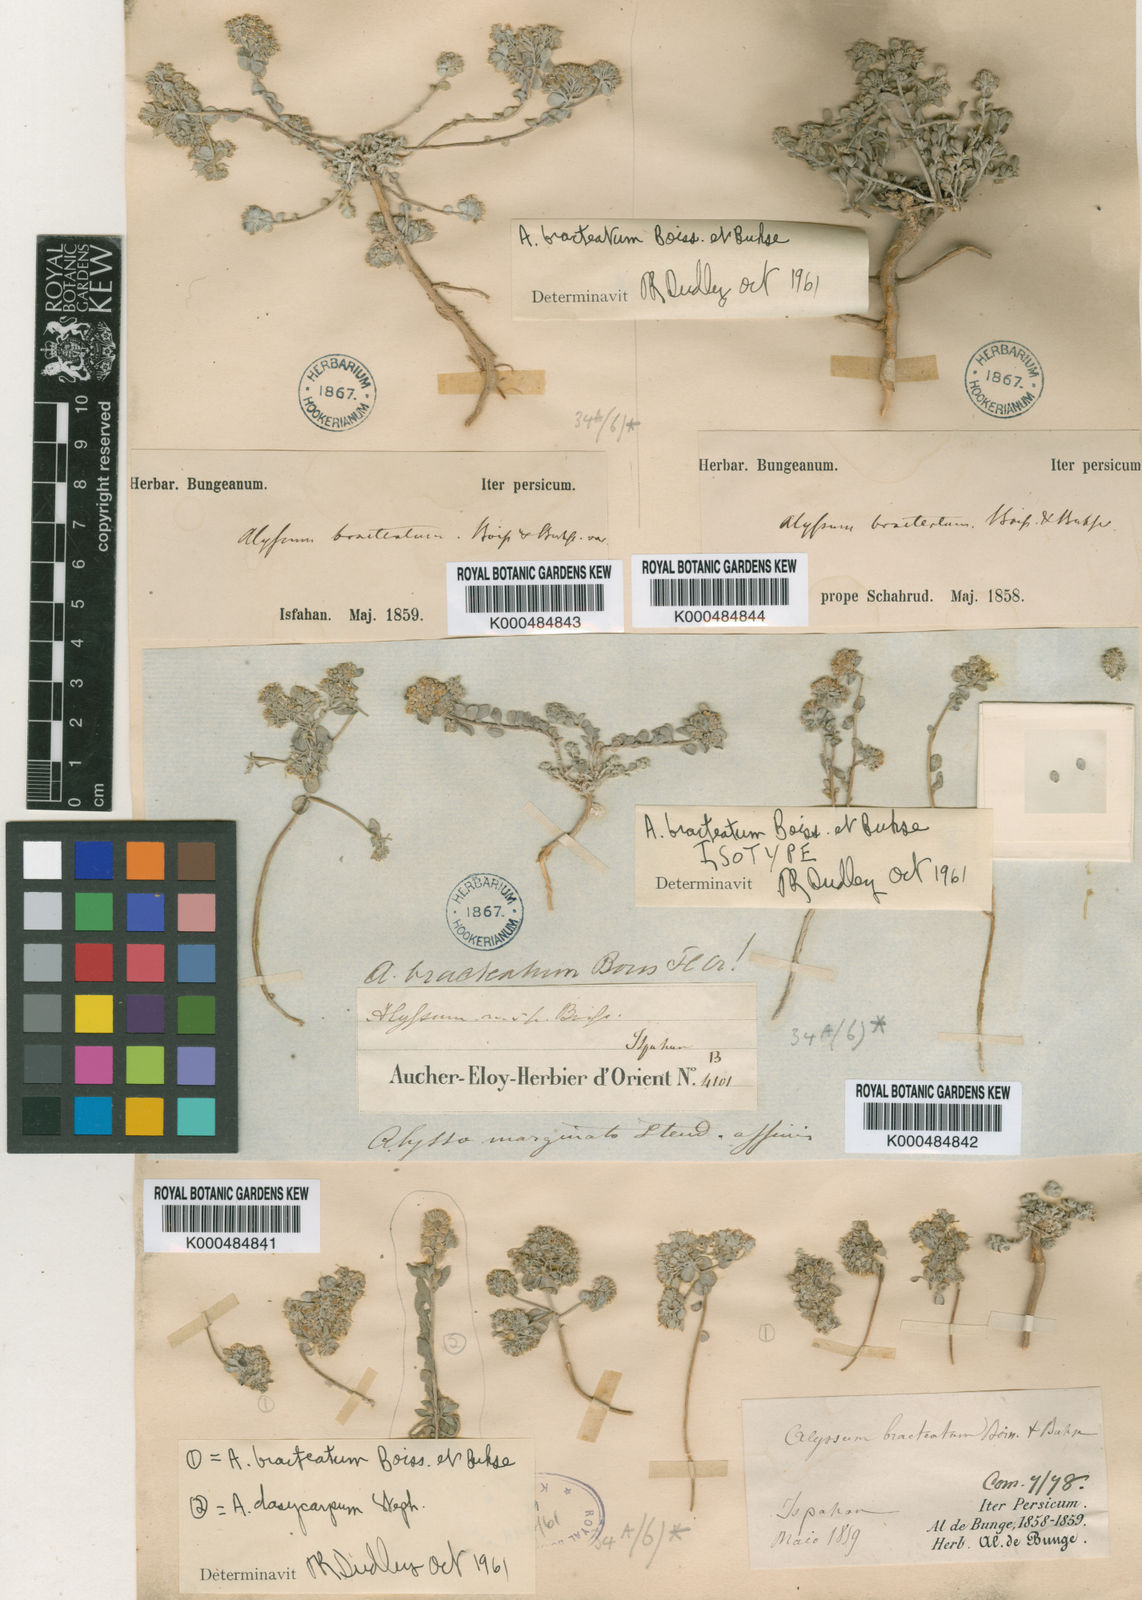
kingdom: Plantae
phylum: Tracheophyta
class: Magnoliopsida
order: Brassicales
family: Brassicaceae
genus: Odontarrhena
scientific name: Odontarrhena bracteata
